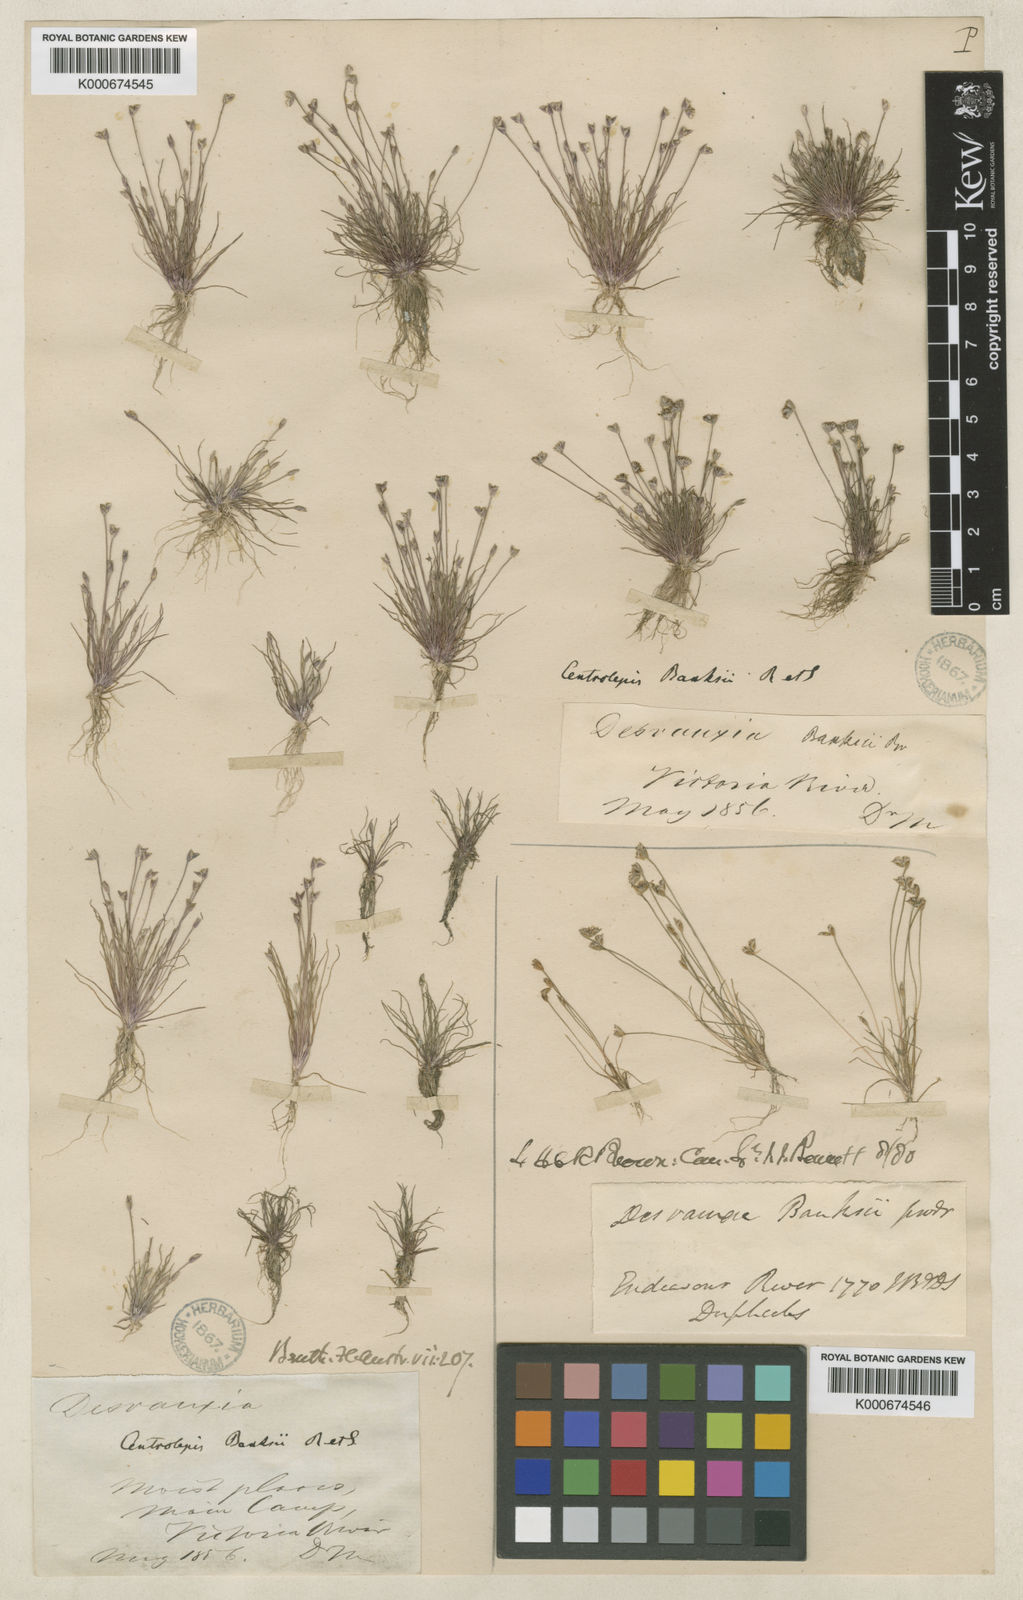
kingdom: Plantae
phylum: Tracheophyta
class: Liliopsida
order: Poales
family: Restionaceae
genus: Centrolepis
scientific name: Centrolepis banksii
